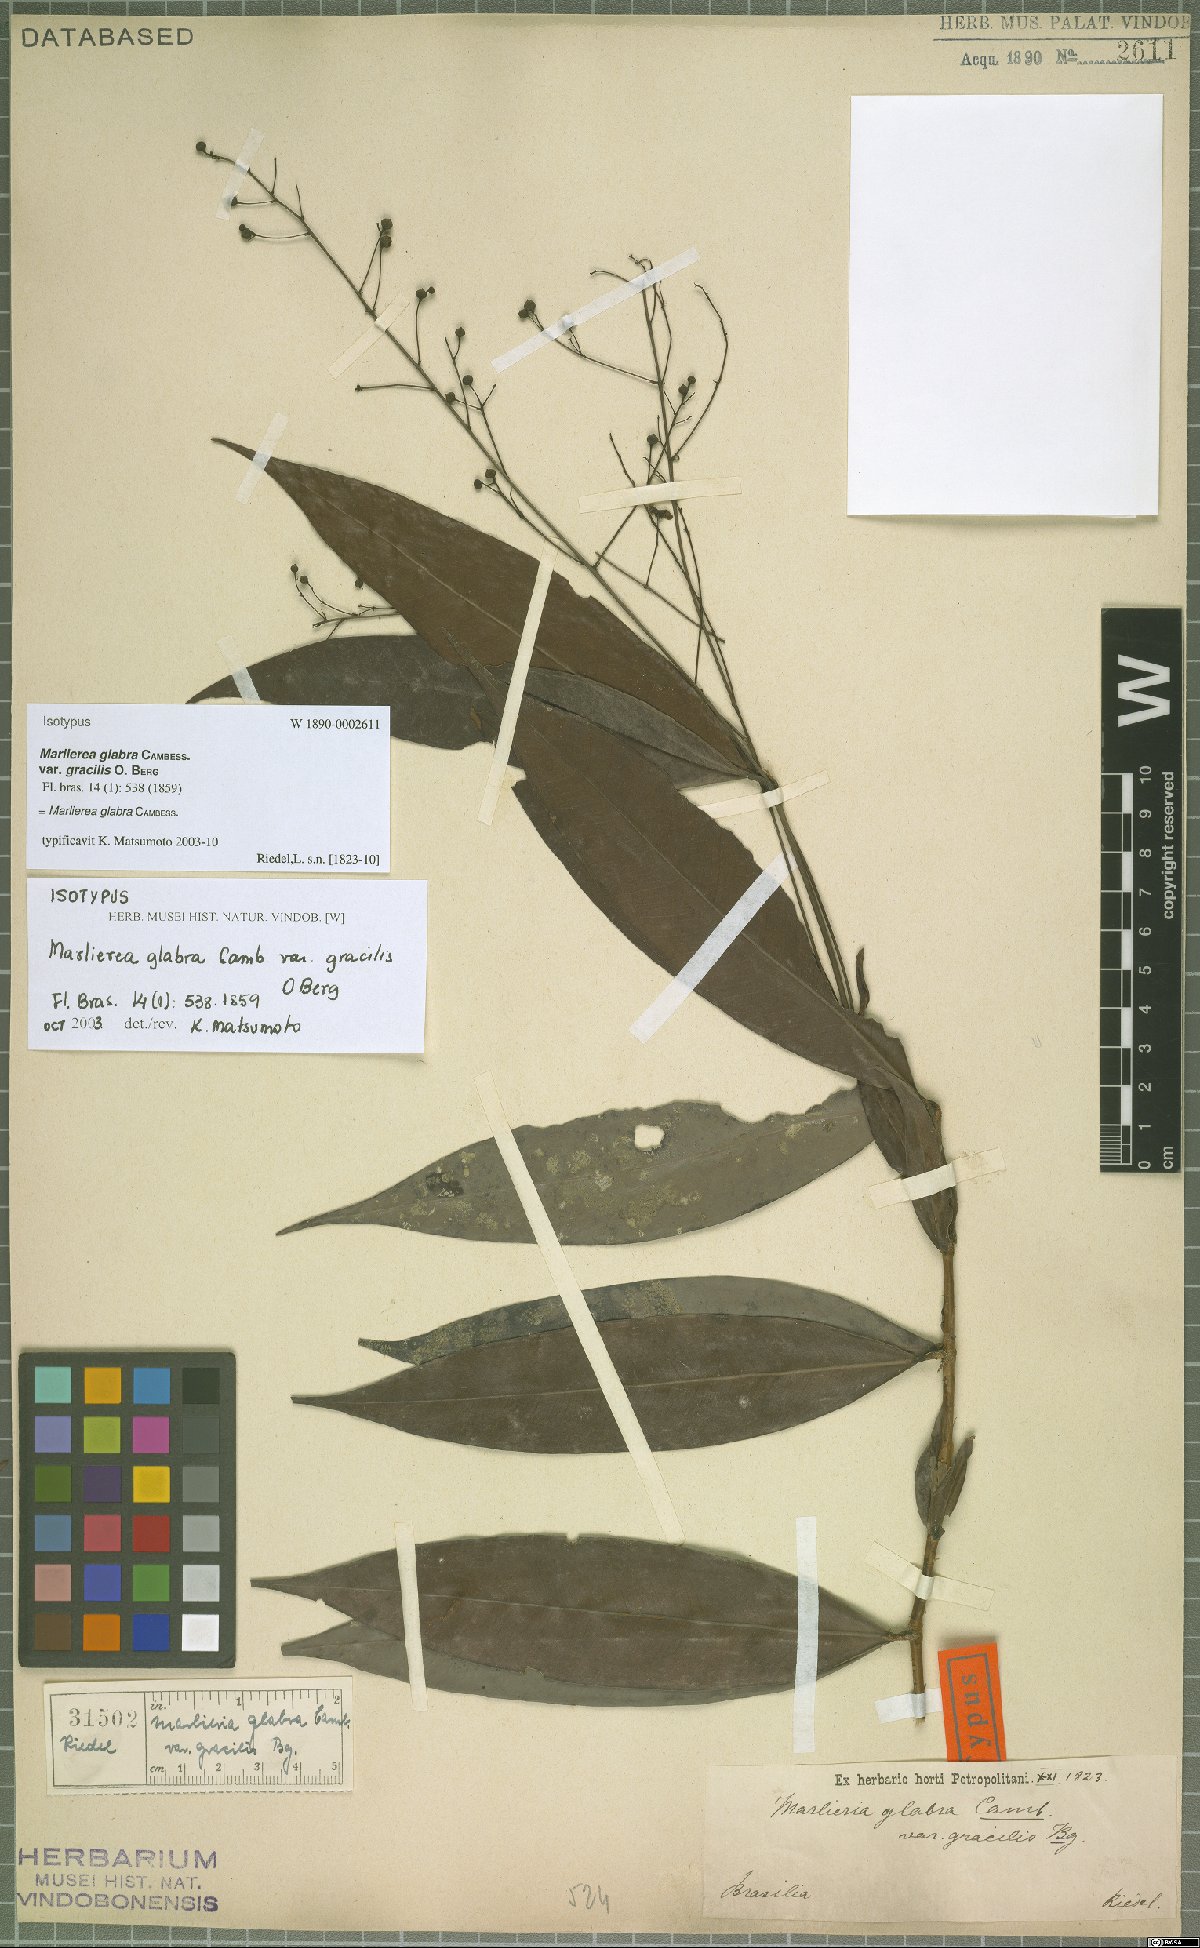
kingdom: Plantae
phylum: Tracheophyta
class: Magnoliopsida
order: Myrtales
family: Myrtaceae
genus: Myrcia
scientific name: Myrcia neoglabra
